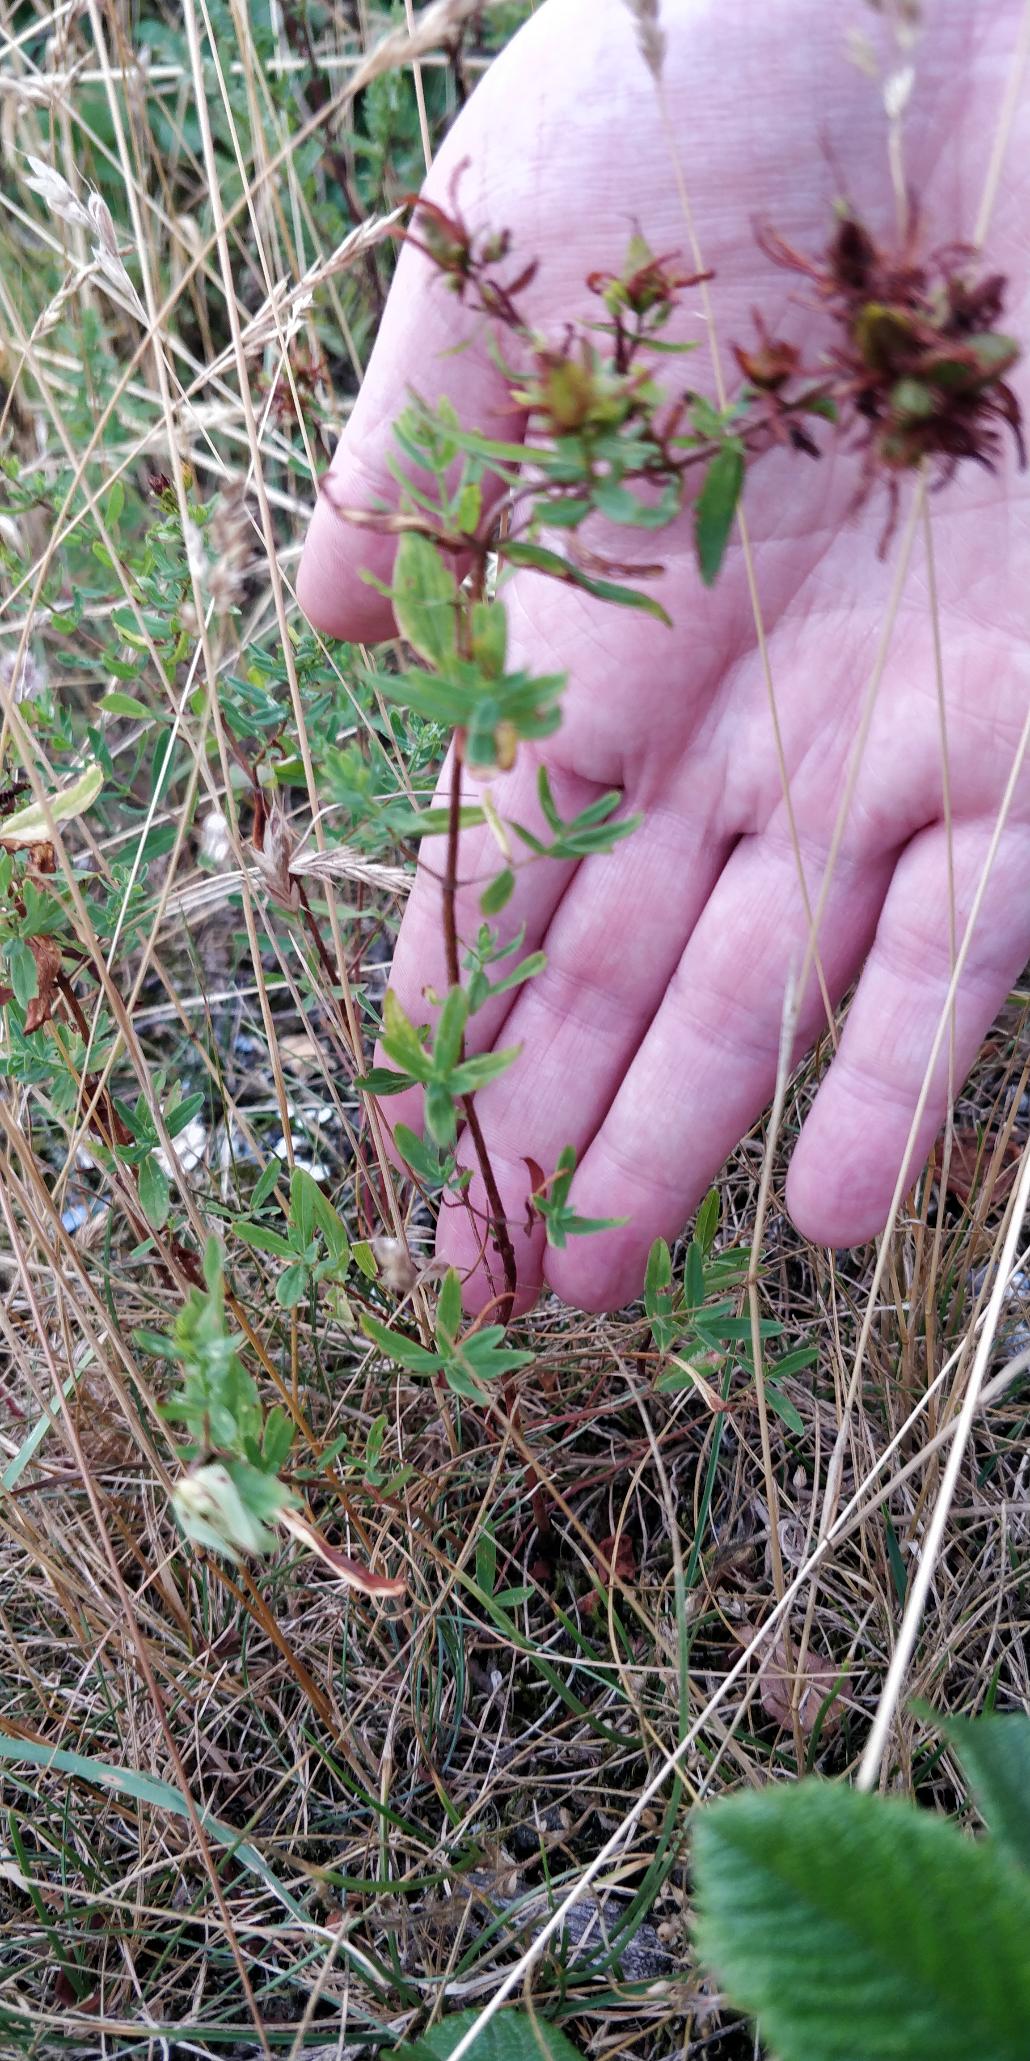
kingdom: Plantae
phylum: Tracheophyta
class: Magnoliopsida
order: Malpighiales
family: Hypericaceae
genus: Hypericum
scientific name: Hypericum perforatum
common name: Prikbladet perikon
